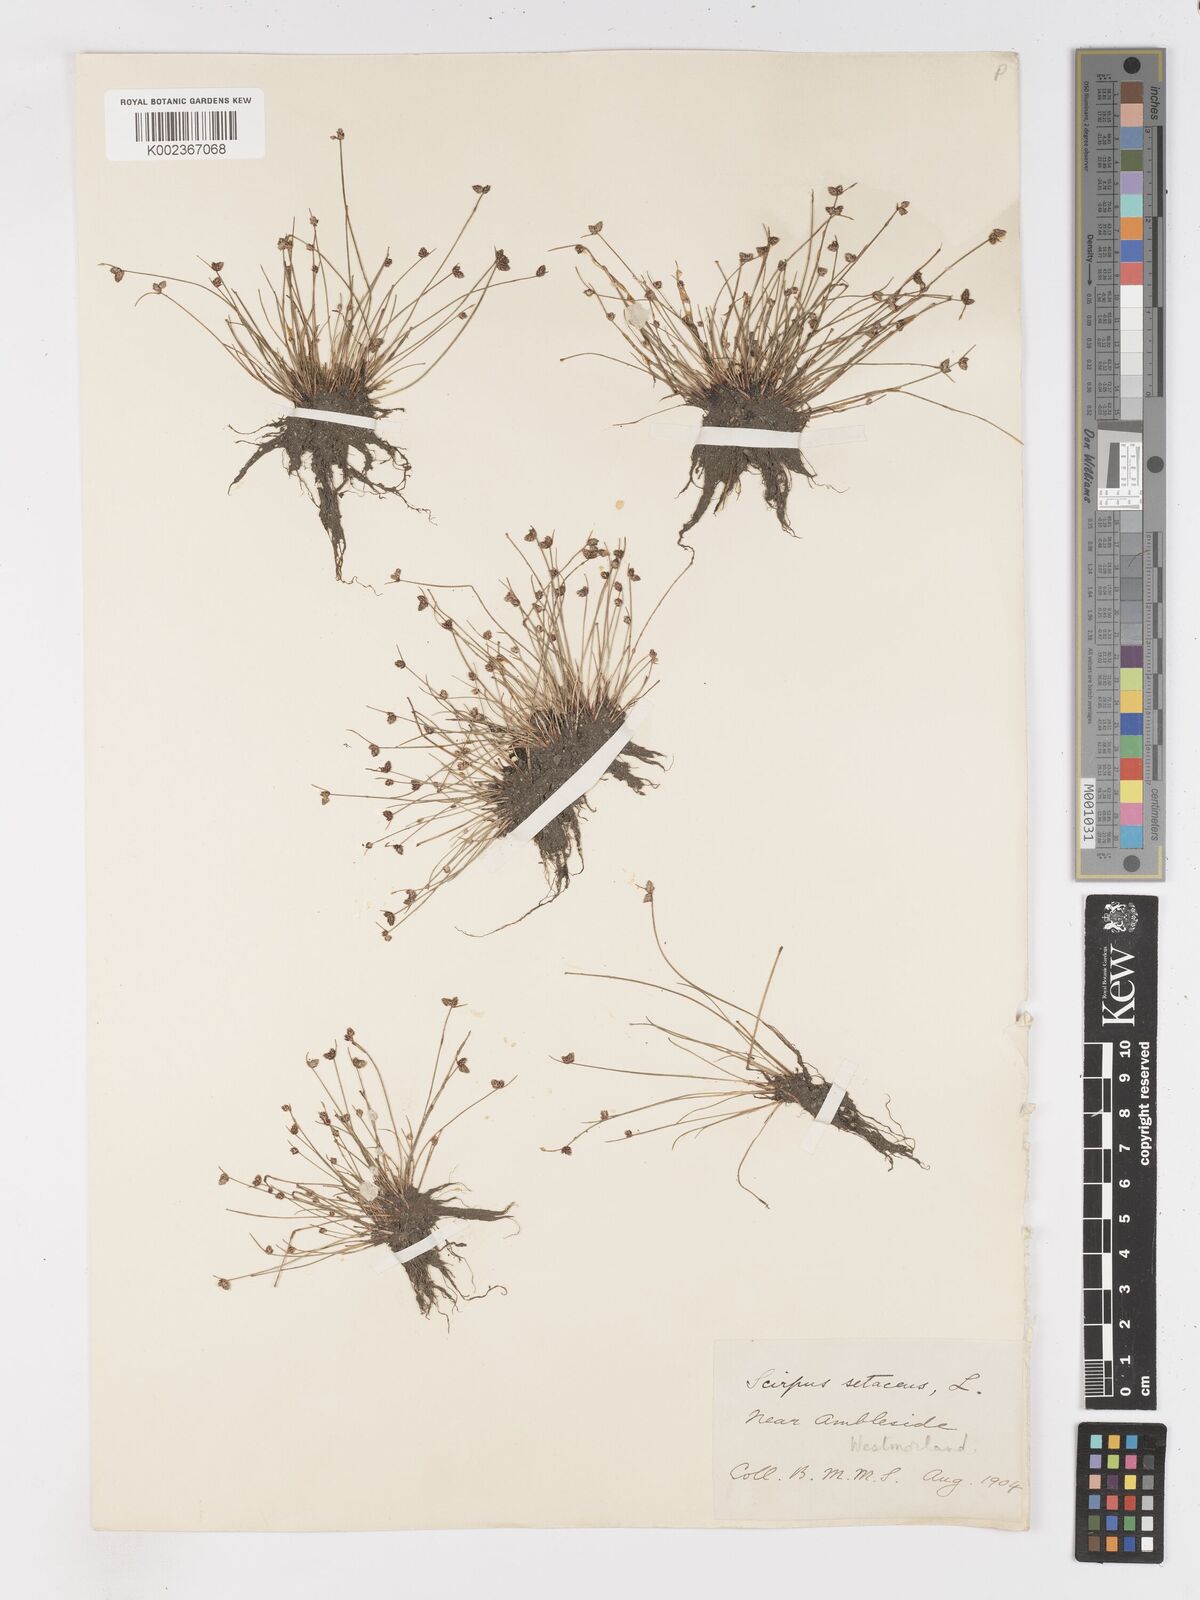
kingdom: Plantae
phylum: Tracheophyta
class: Liliopsida
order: Poales
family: Cyperaceae
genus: Isolepis
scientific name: Isolepis setacea
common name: Bristle club-rush
